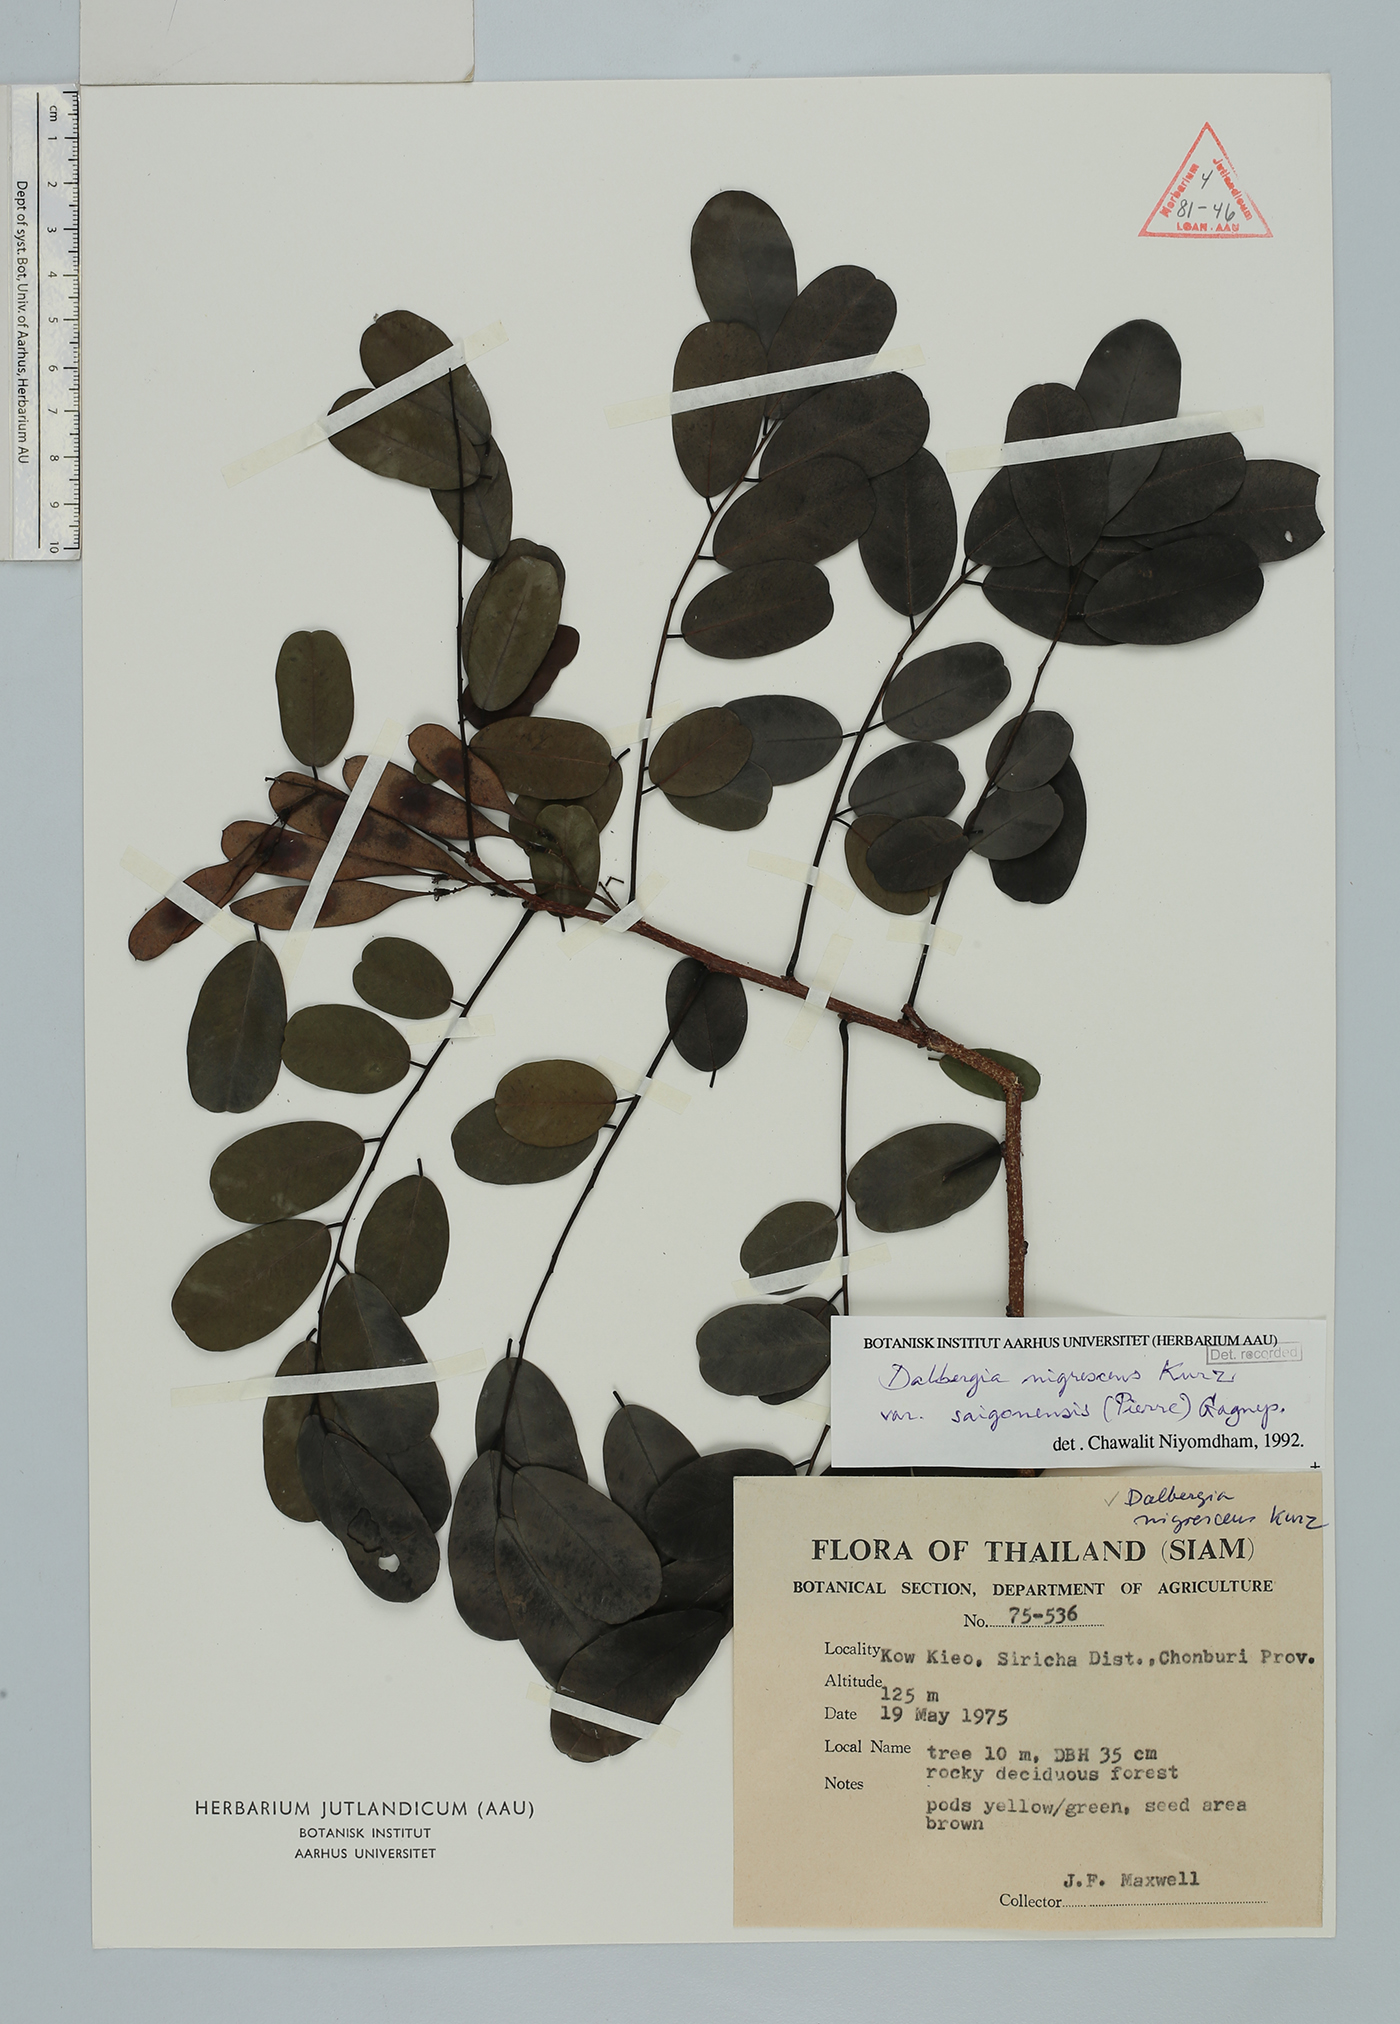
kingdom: Plantae
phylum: Tracheophyta
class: Magnoliopsida
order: Fabales
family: Fabaceae
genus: Dalbergia
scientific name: Dalbergia nigrescens
